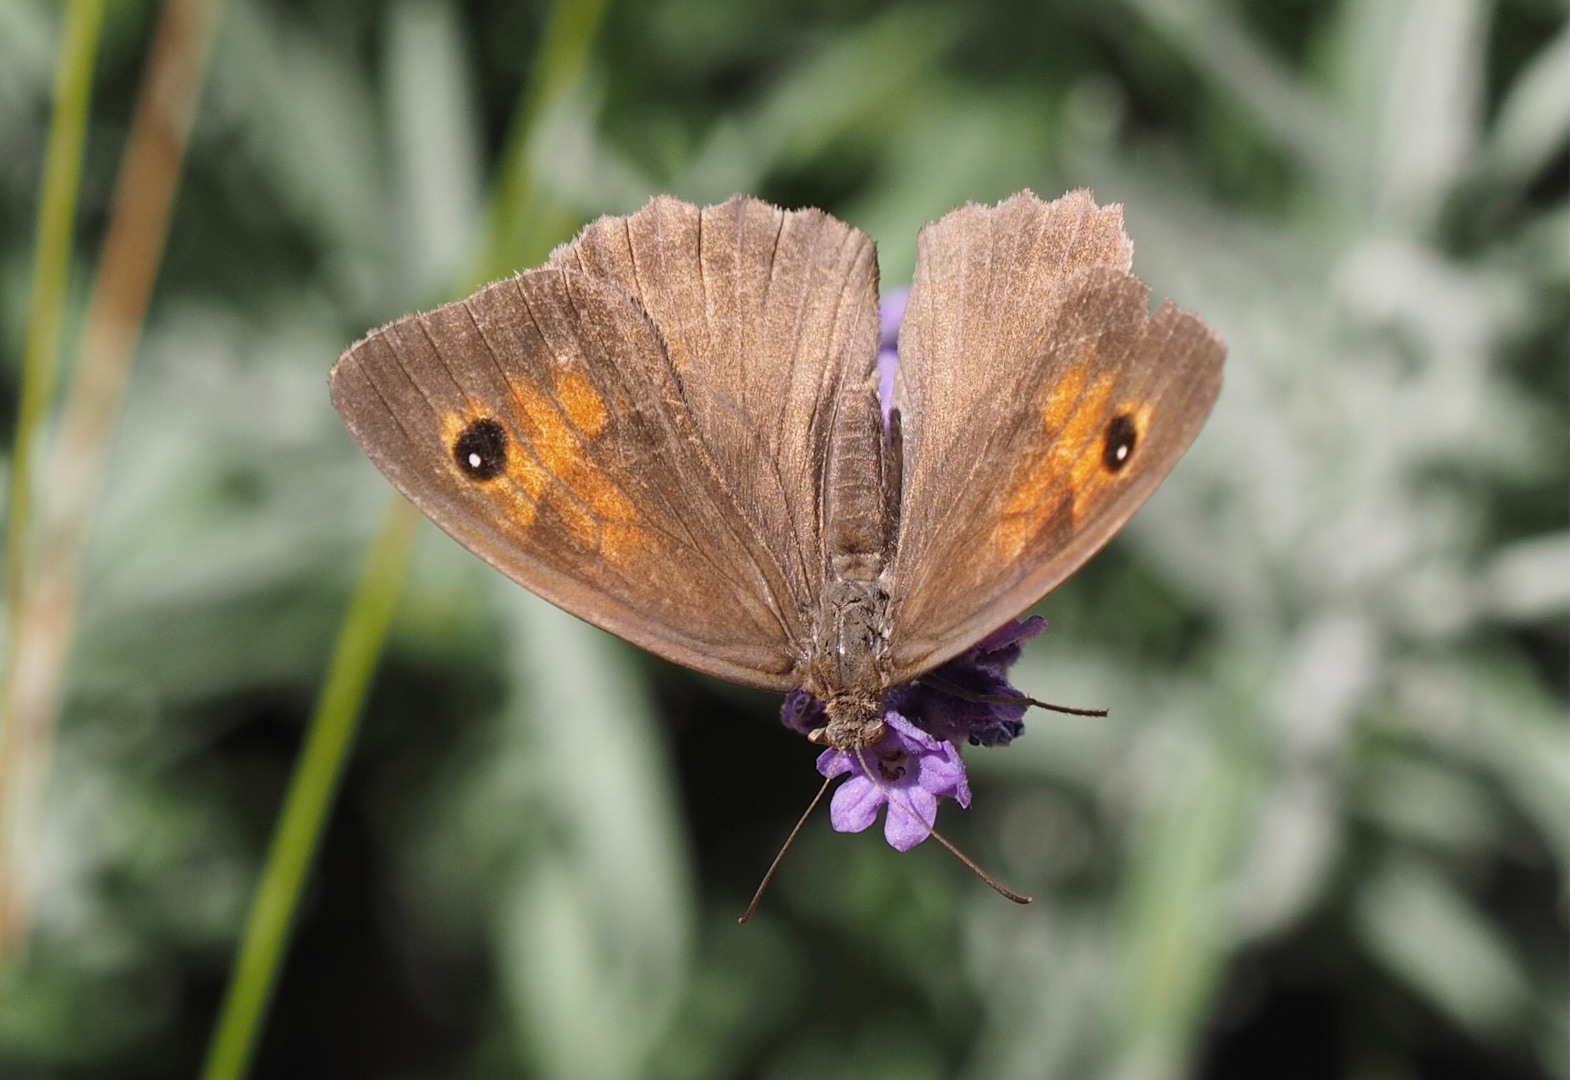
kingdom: Animalia
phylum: Arthropoda
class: Insecta
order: Lepidoptera
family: Nymphalidae
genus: Maniola
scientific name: Maniola jurtina
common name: Græsrandøje
